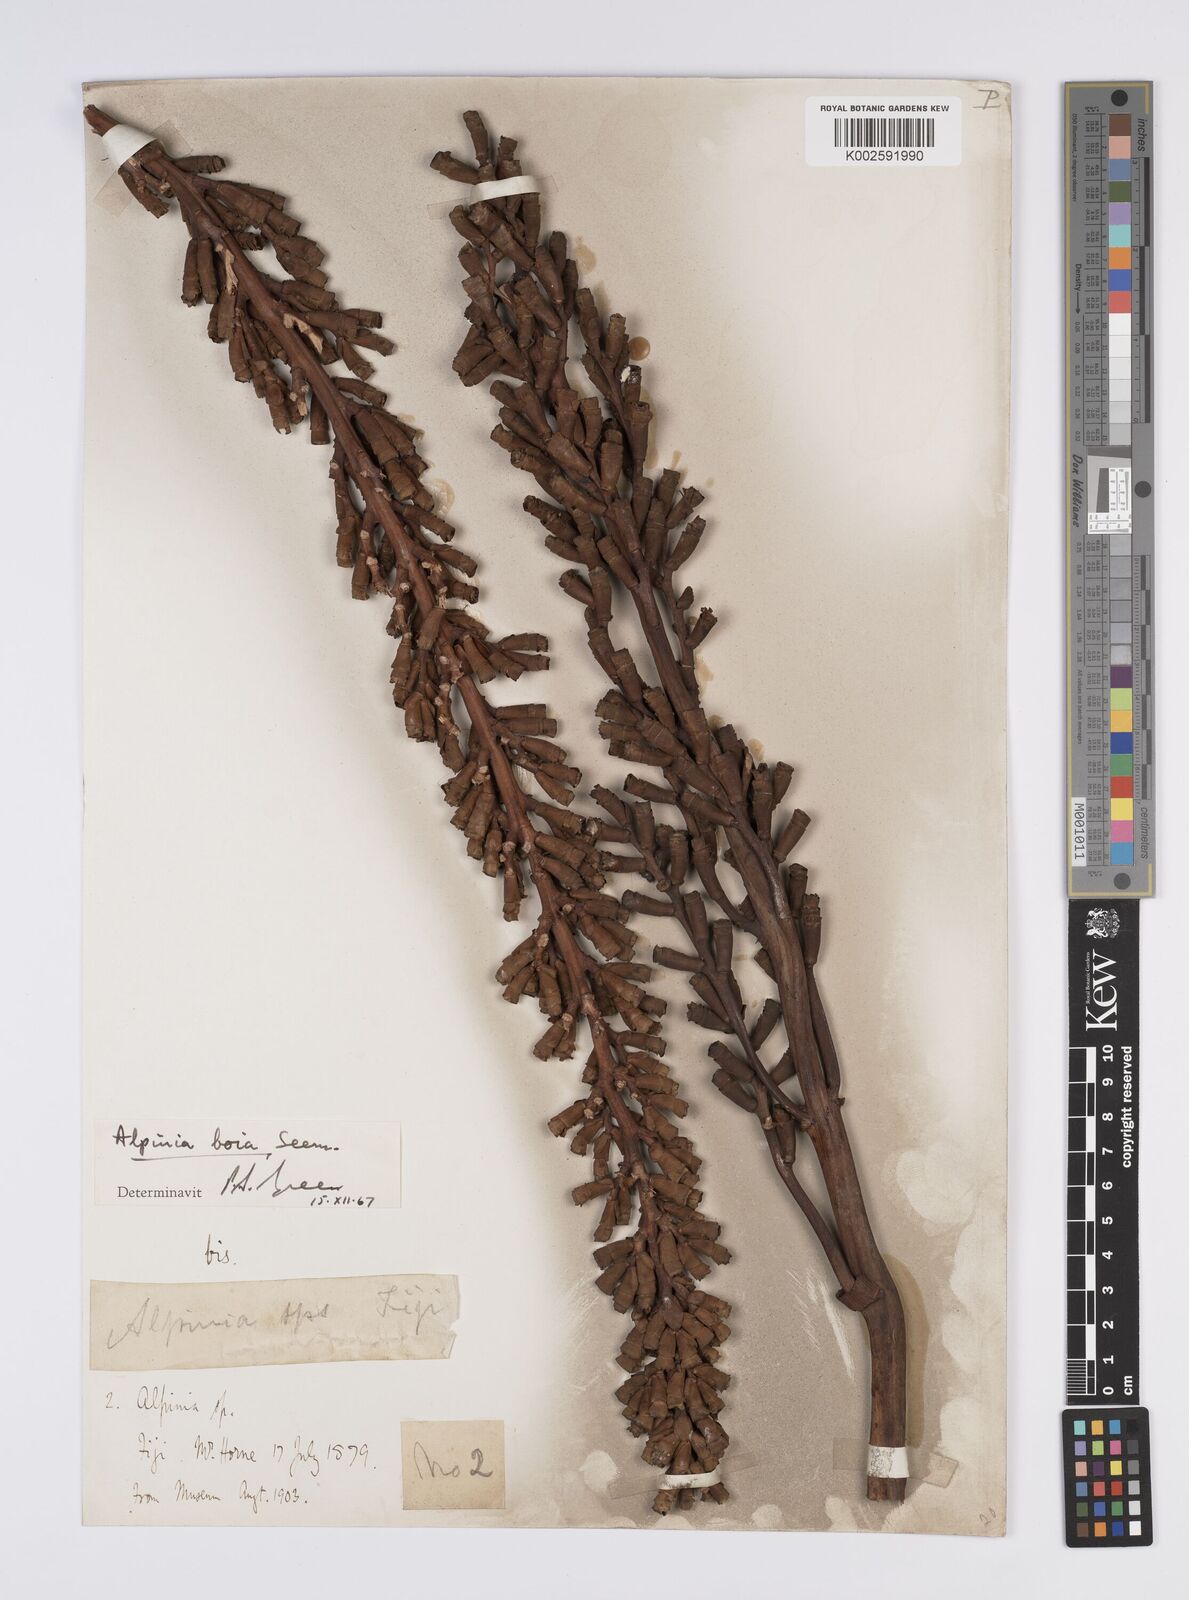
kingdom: Plantae
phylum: Tracheophyta
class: Liliopsida
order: Zingiberales
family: Zingiberaceae
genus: Alpinia
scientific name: Alpinia boia
